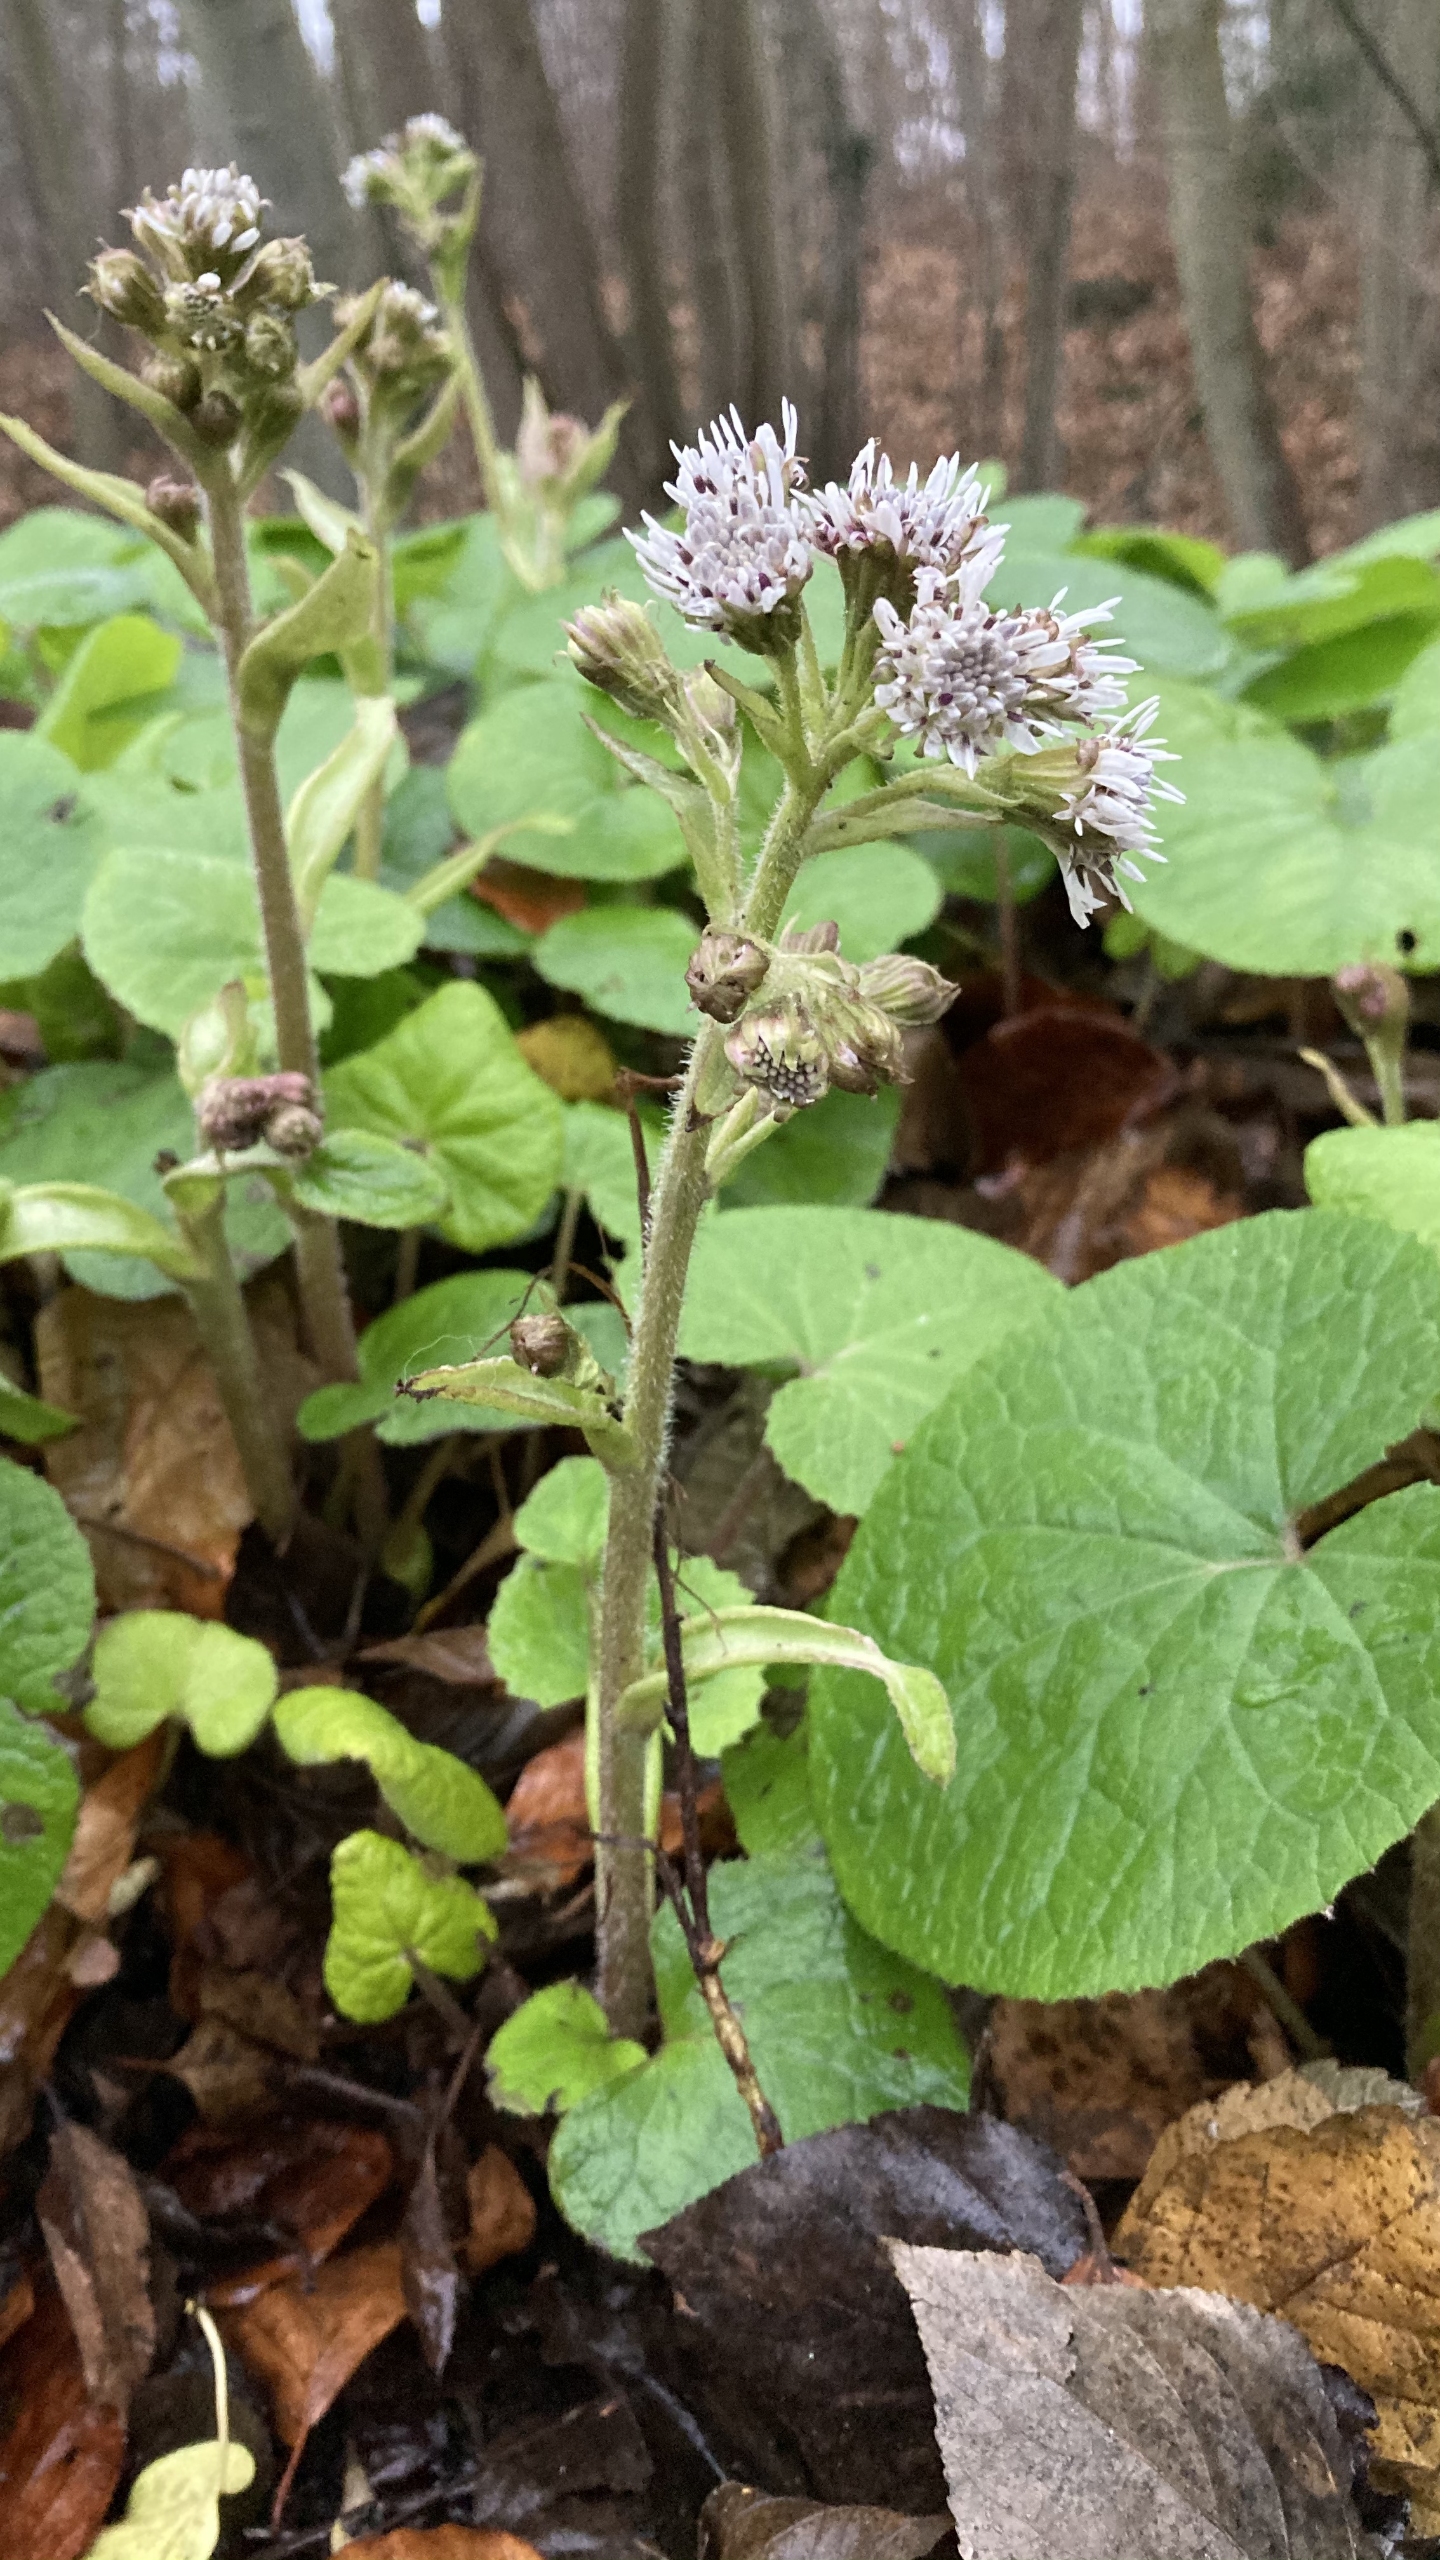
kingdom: Plantae
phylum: Tracheophyta
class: Magnoliopsida
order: Asterales
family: Asteraceae
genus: Petasites
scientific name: Petasites pyrenaicus
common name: Vellugtende hestehov
